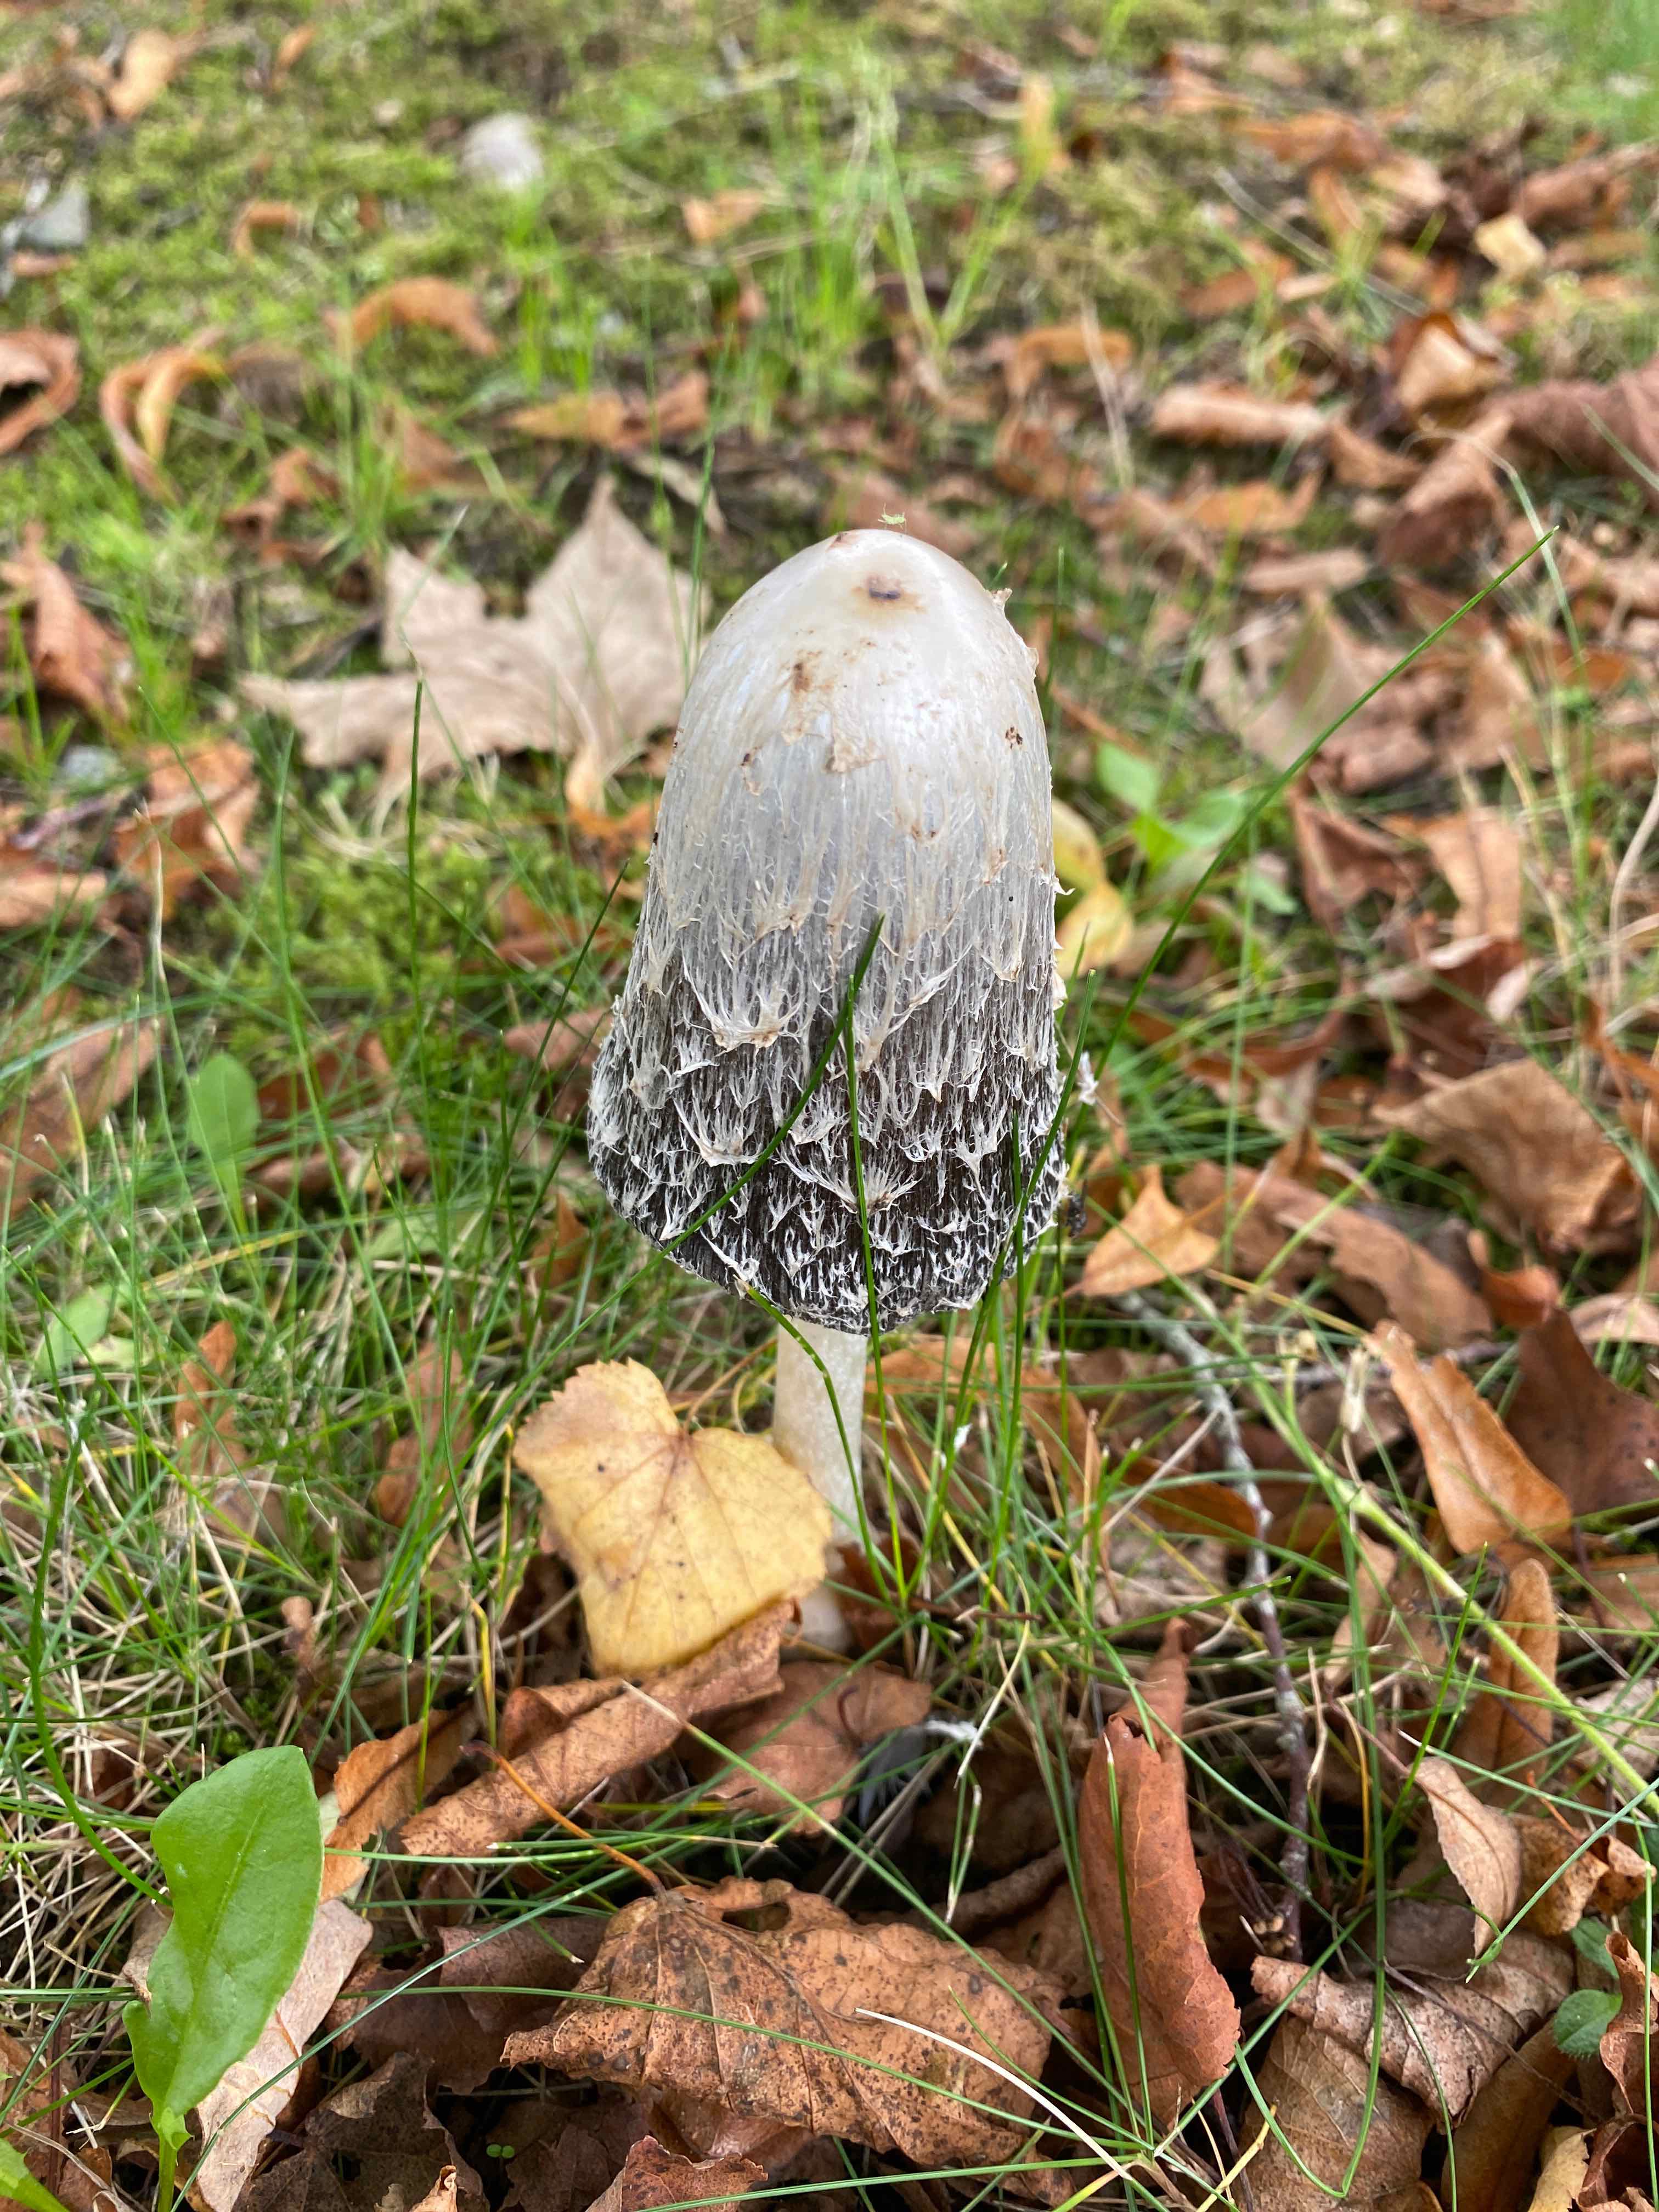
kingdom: Fungi
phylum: Basidiomycota
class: Agaricomycetes
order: Agaricales
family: Agaricaceae
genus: Coprinus
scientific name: Coprinus comatus
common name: stor parykhat
